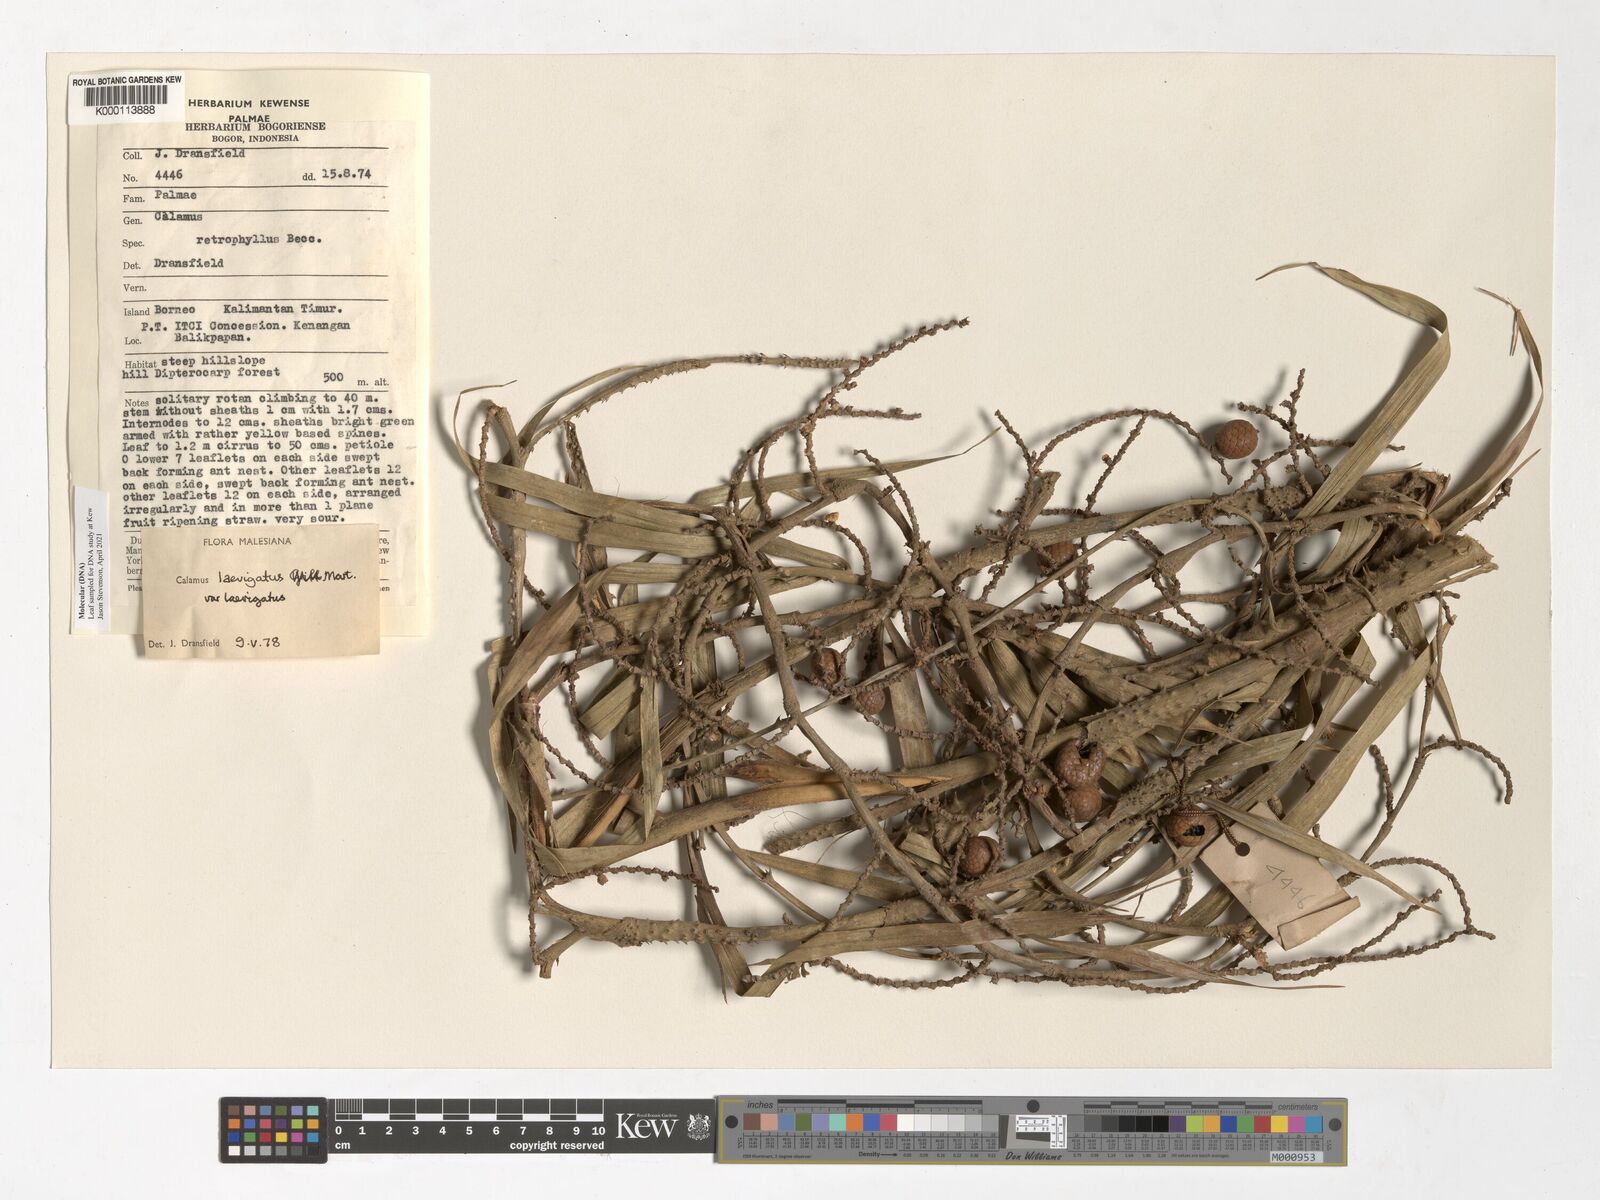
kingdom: Plantae
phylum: Tracheophyta
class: Liliopsida
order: Arecales
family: Arecaceae
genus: Calamus
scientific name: Calamus
